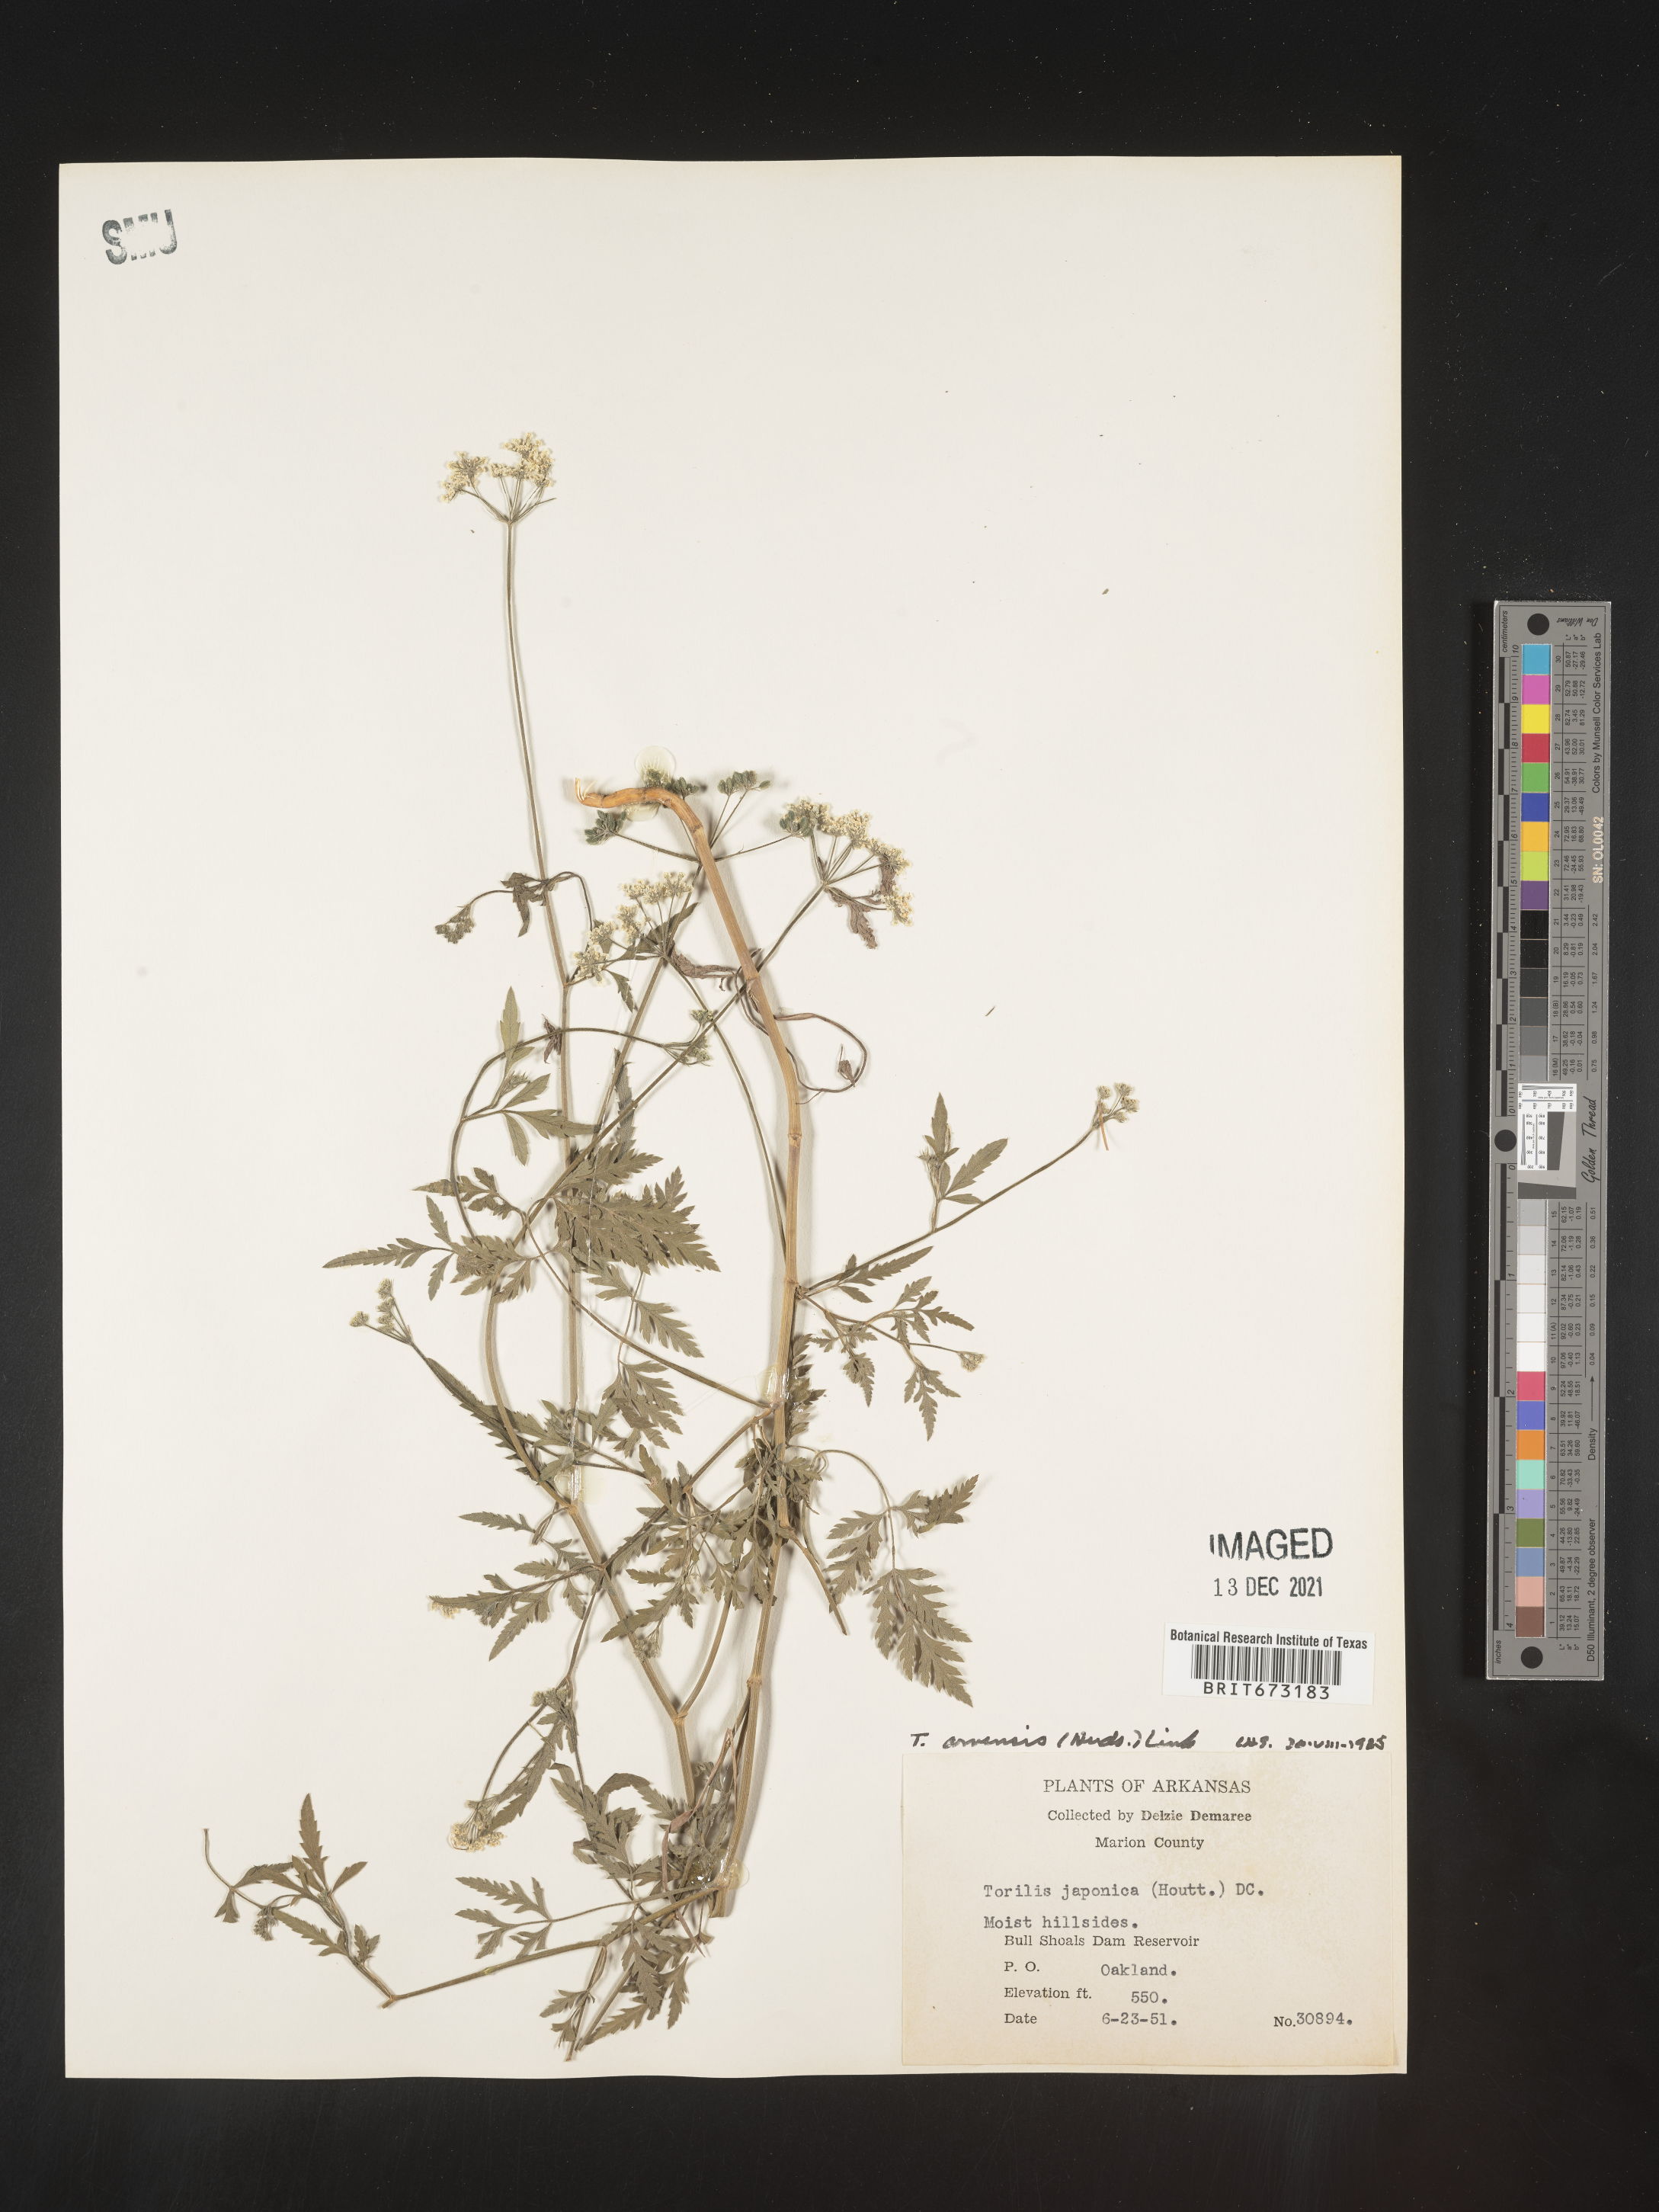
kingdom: Plantae
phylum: Tracheophyta
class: Magnoliopsida
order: Apiales
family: Apiaceae
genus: Torilis
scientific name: Torilis arvensis
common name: Spreading hedge-parsley
